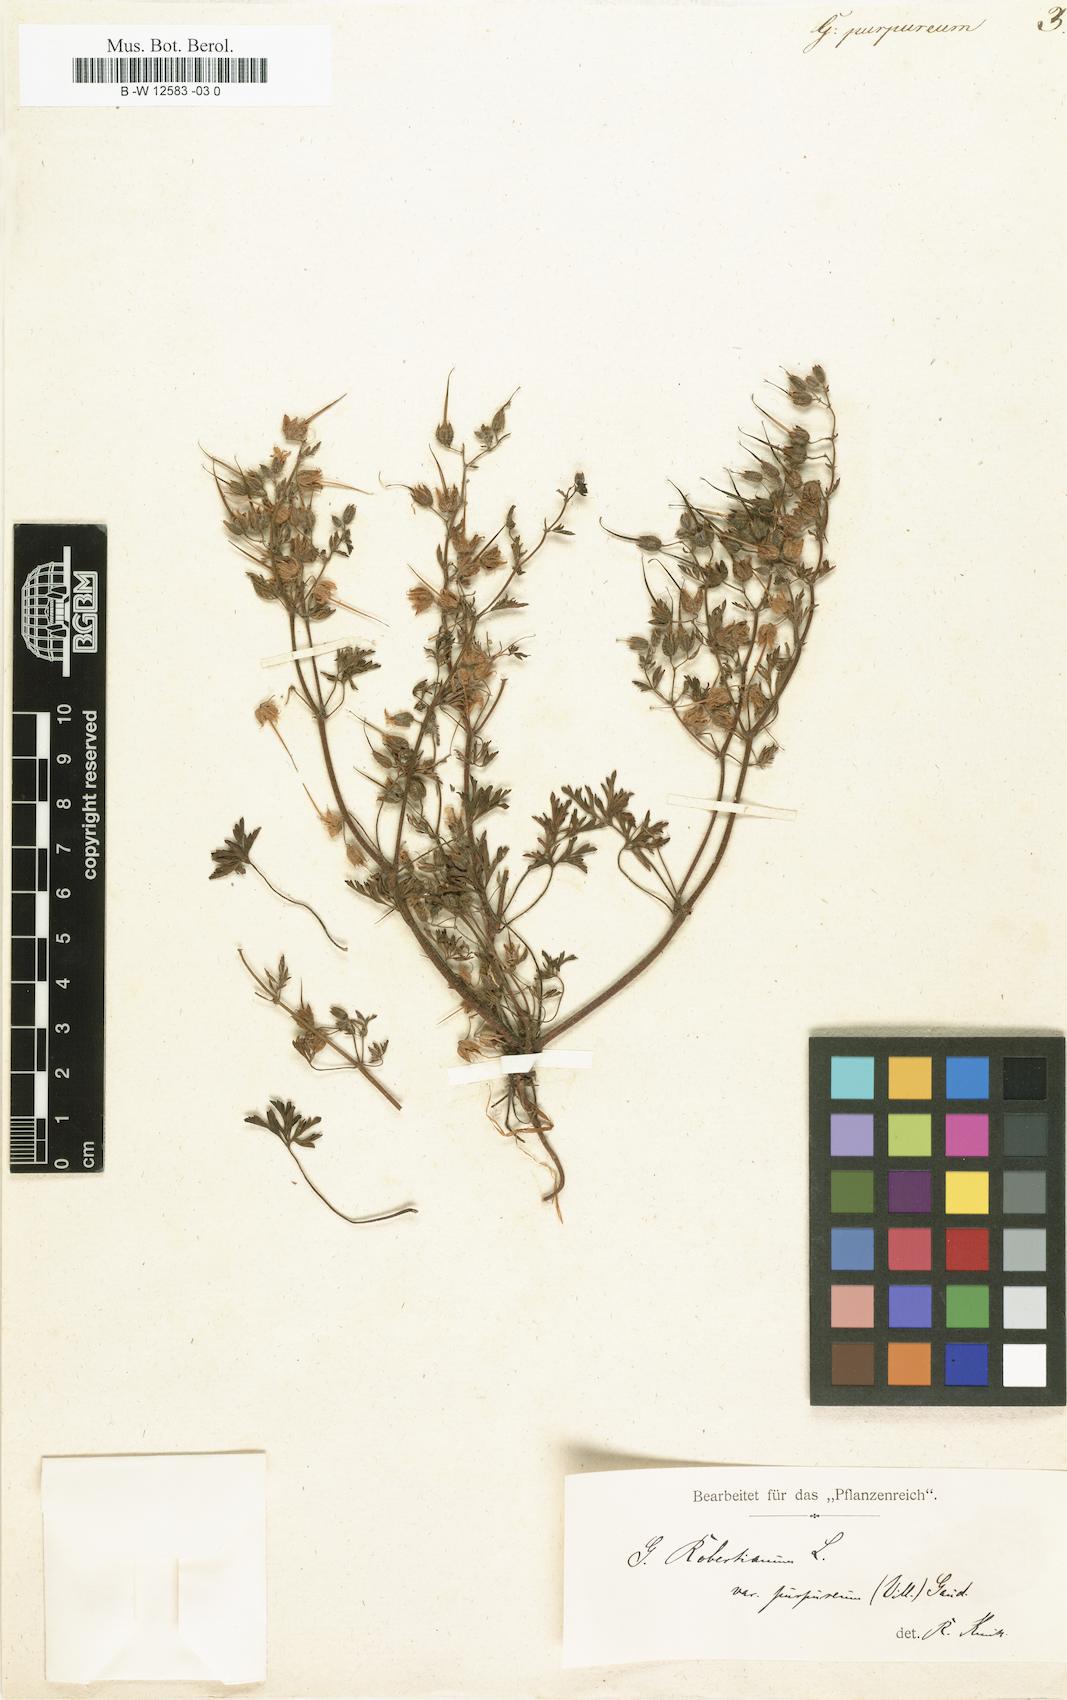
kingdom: Plantae
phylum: Tracheophyta
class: Magnoliopsida
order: Geraniales
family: Geraniaceae
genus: Geranium
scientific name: Geranium purpureum
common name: Little-robin
